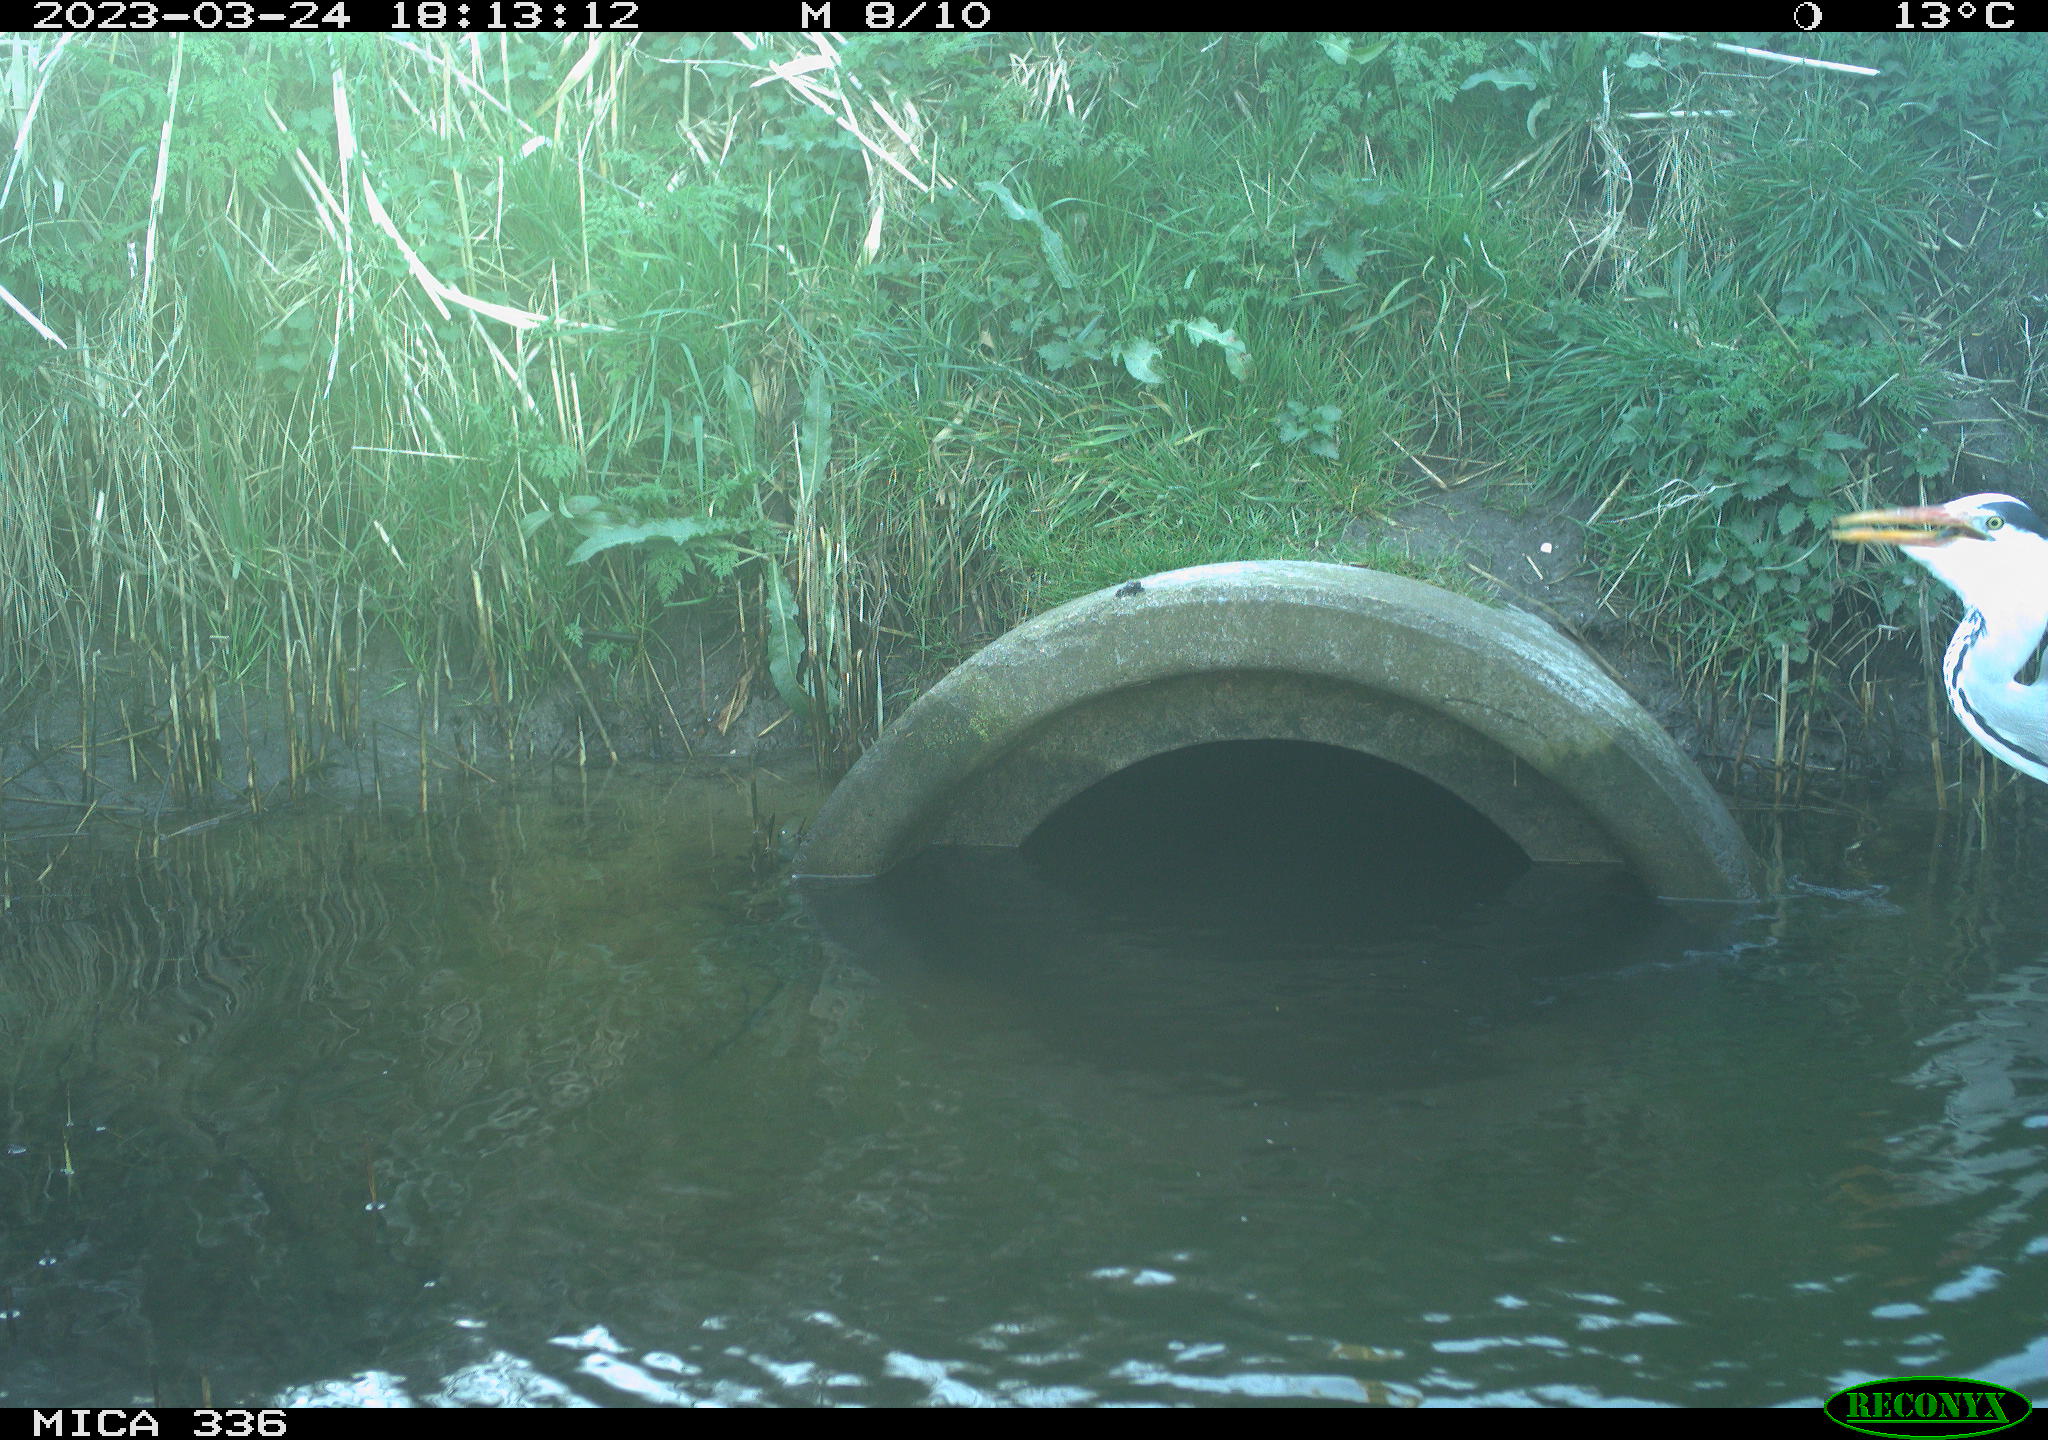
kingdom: Animalia
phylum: Chordata
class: Aves
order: Pelecaniformes
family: Ardeidae
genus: Ardea
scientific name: Ardea
